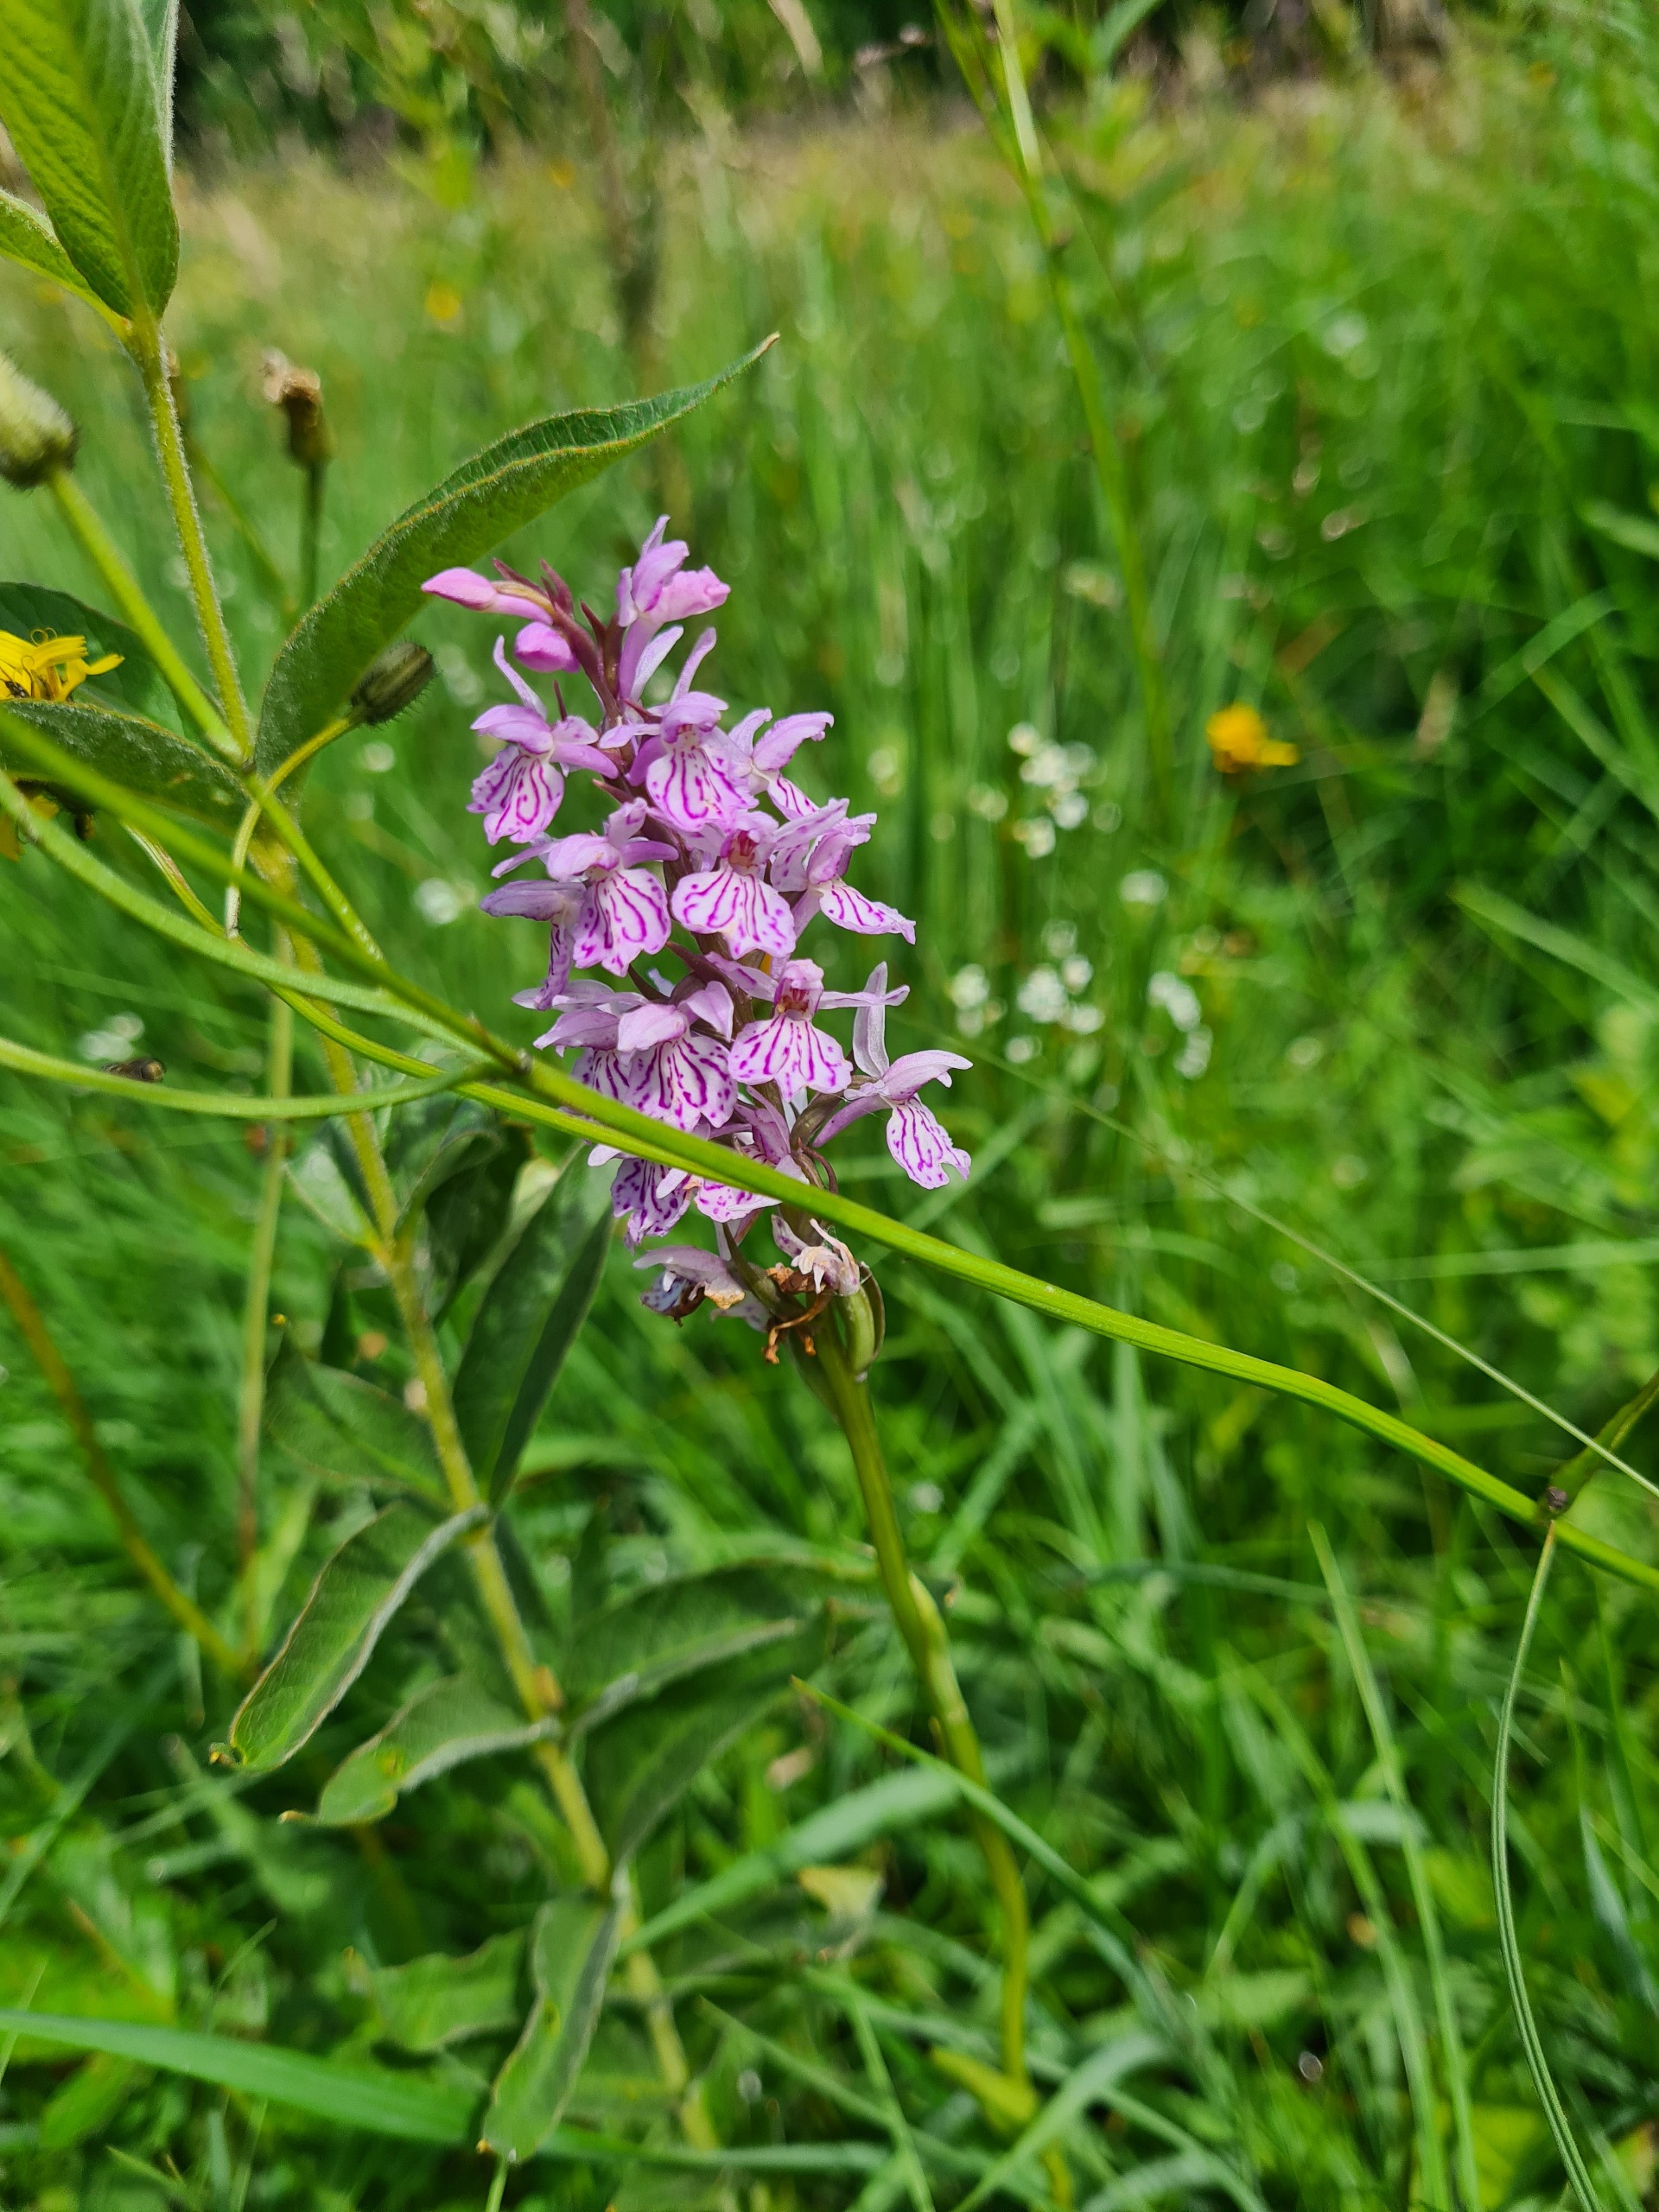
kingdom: Plantae
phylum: Tracheophyta
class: Liliopsida
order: Asparagales
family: Orchidaceae
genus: Dactylorhiza
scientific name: Dactylorhiza maculata
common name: Plettet gøgeurt (underart)
